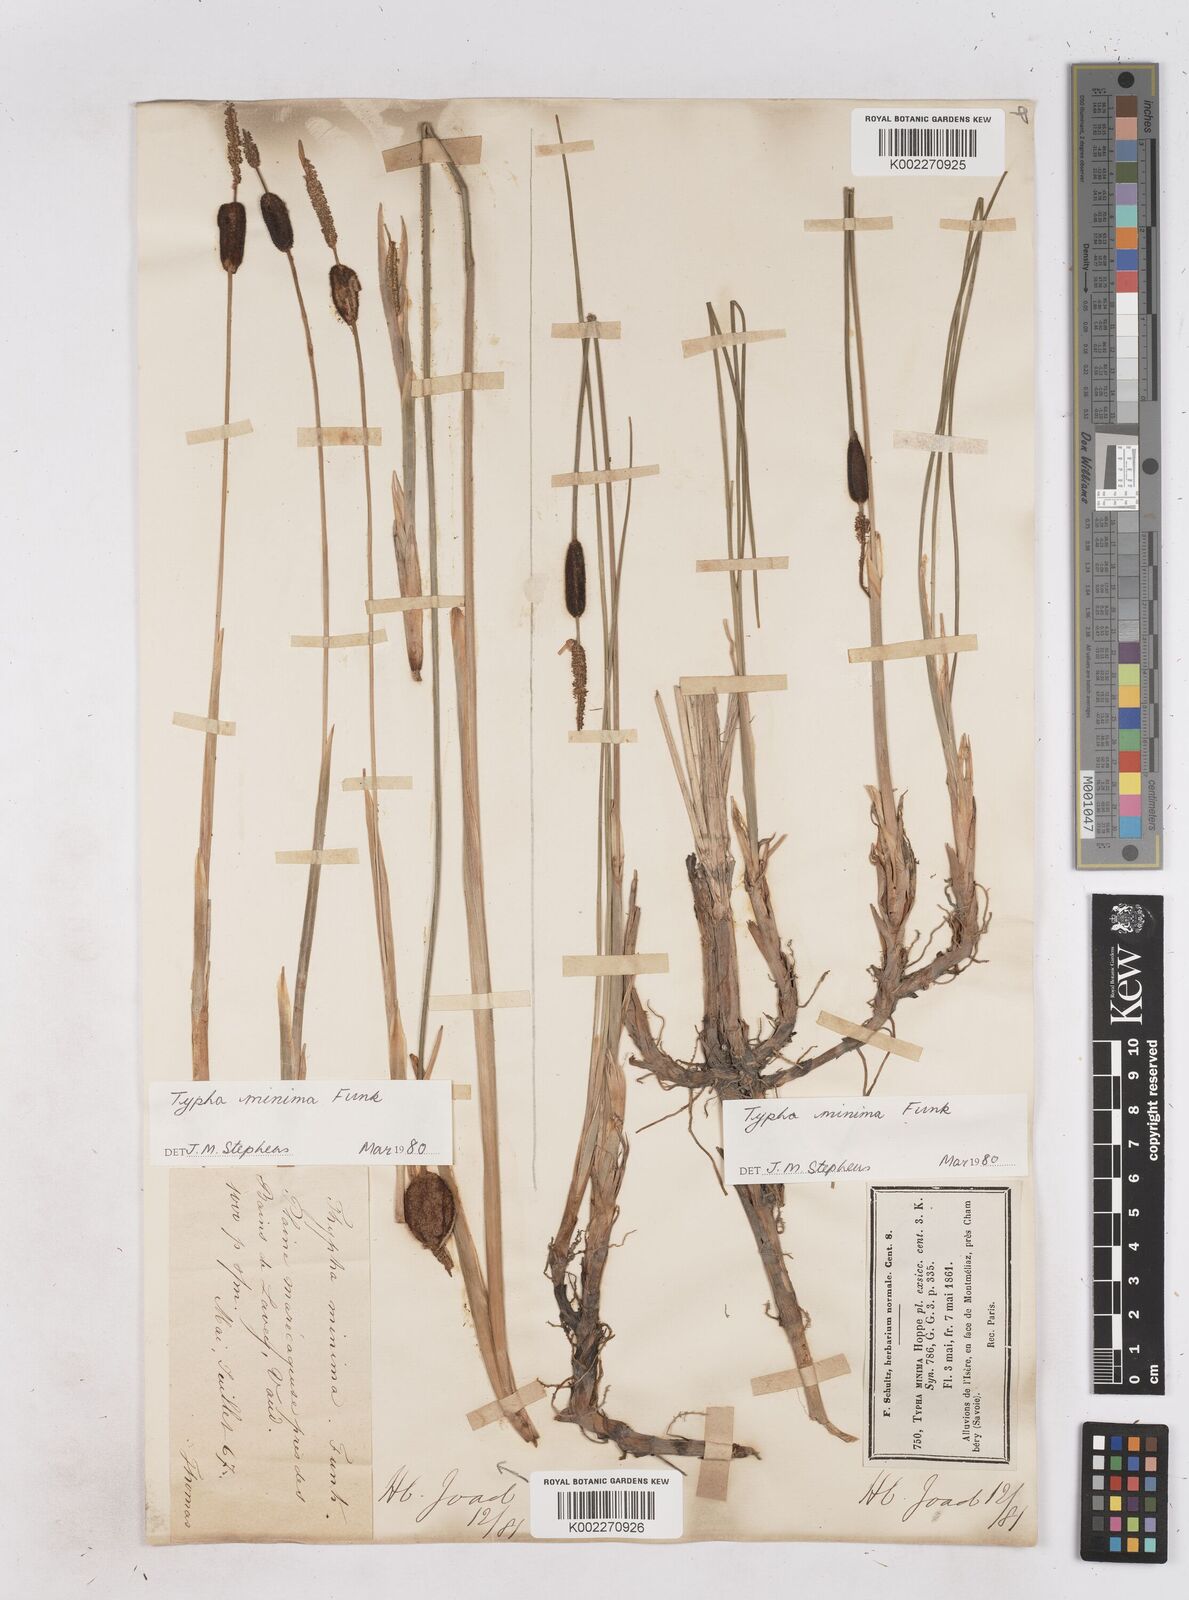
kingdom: Plantae
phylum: Tracheophyta
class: Liliopsida
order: Poales
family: Typhaceae
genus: Typha
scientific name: Typha
